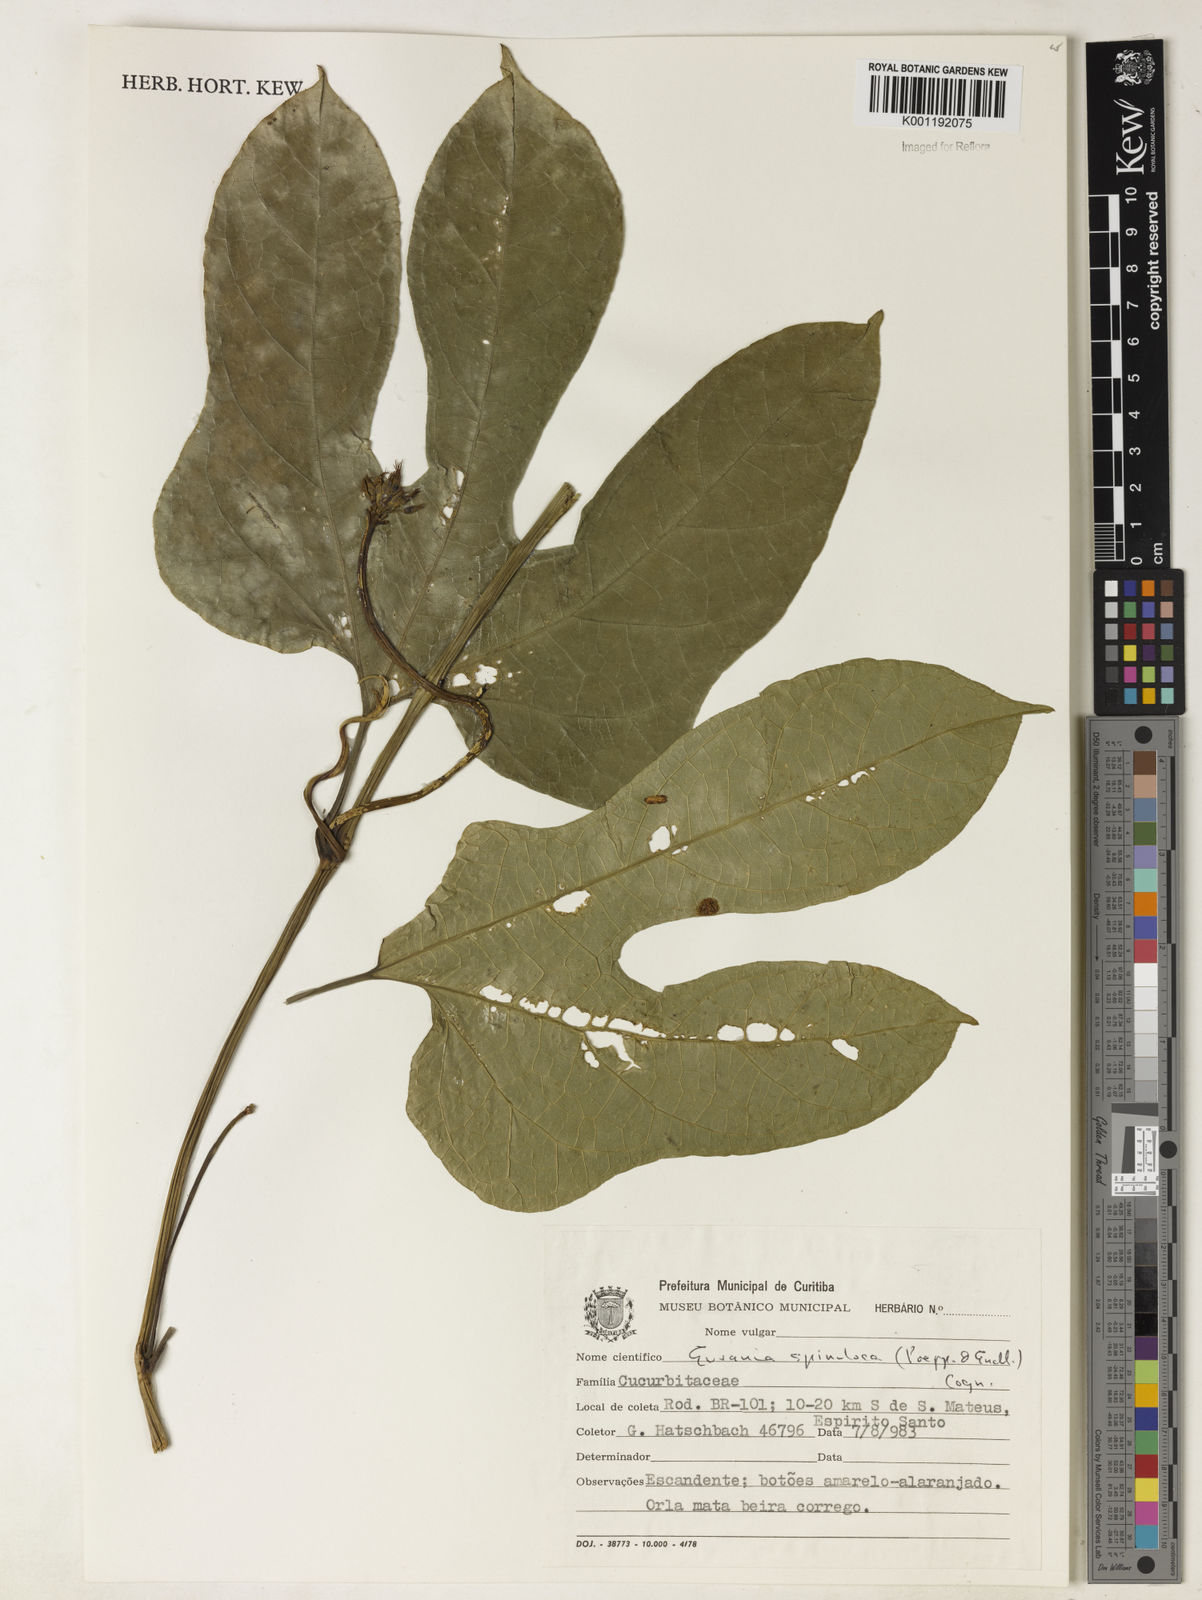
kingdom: Plantae
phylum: Tracheophyta
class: Magnoliopsida
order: Cucurbitales
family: Cucurbitaceae
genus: Gurania
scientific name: Gurania lobata
